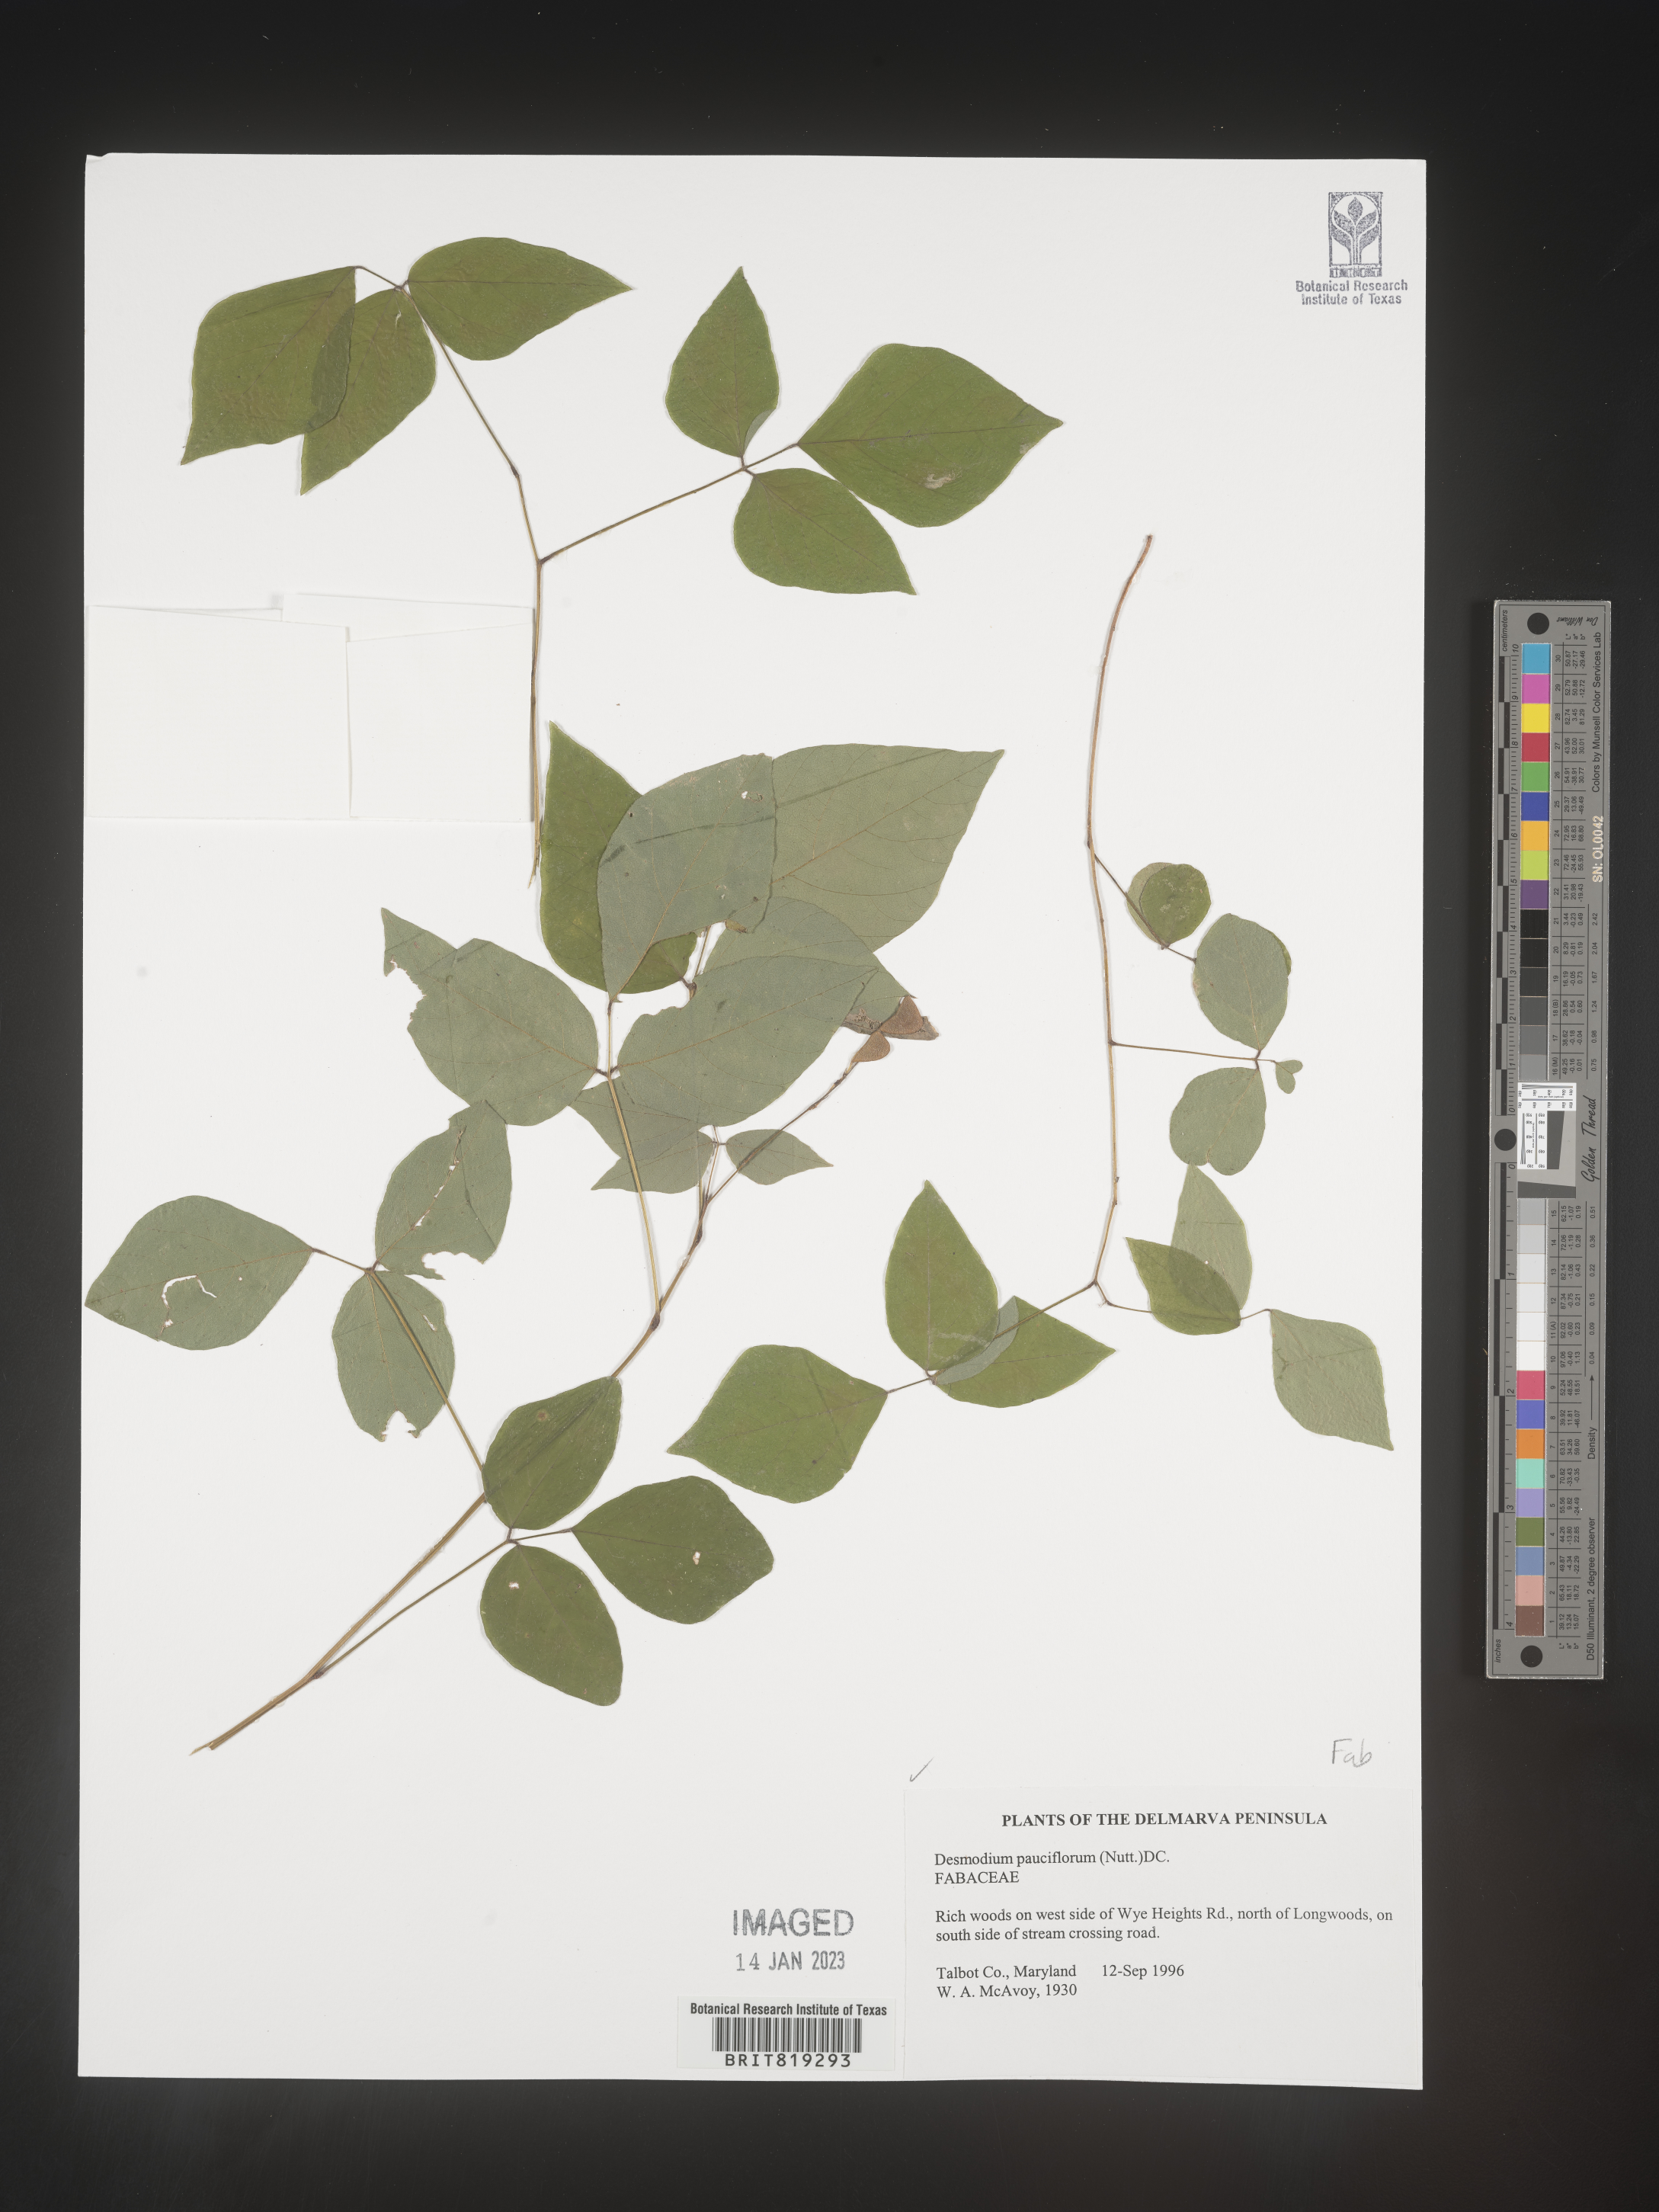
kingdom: Plantae
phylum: Tracheophyta
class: Magnoliopsida
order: Fabales
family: Fabaceae
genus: Hylodesmum
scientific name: Hylodesmum pauciflorum
